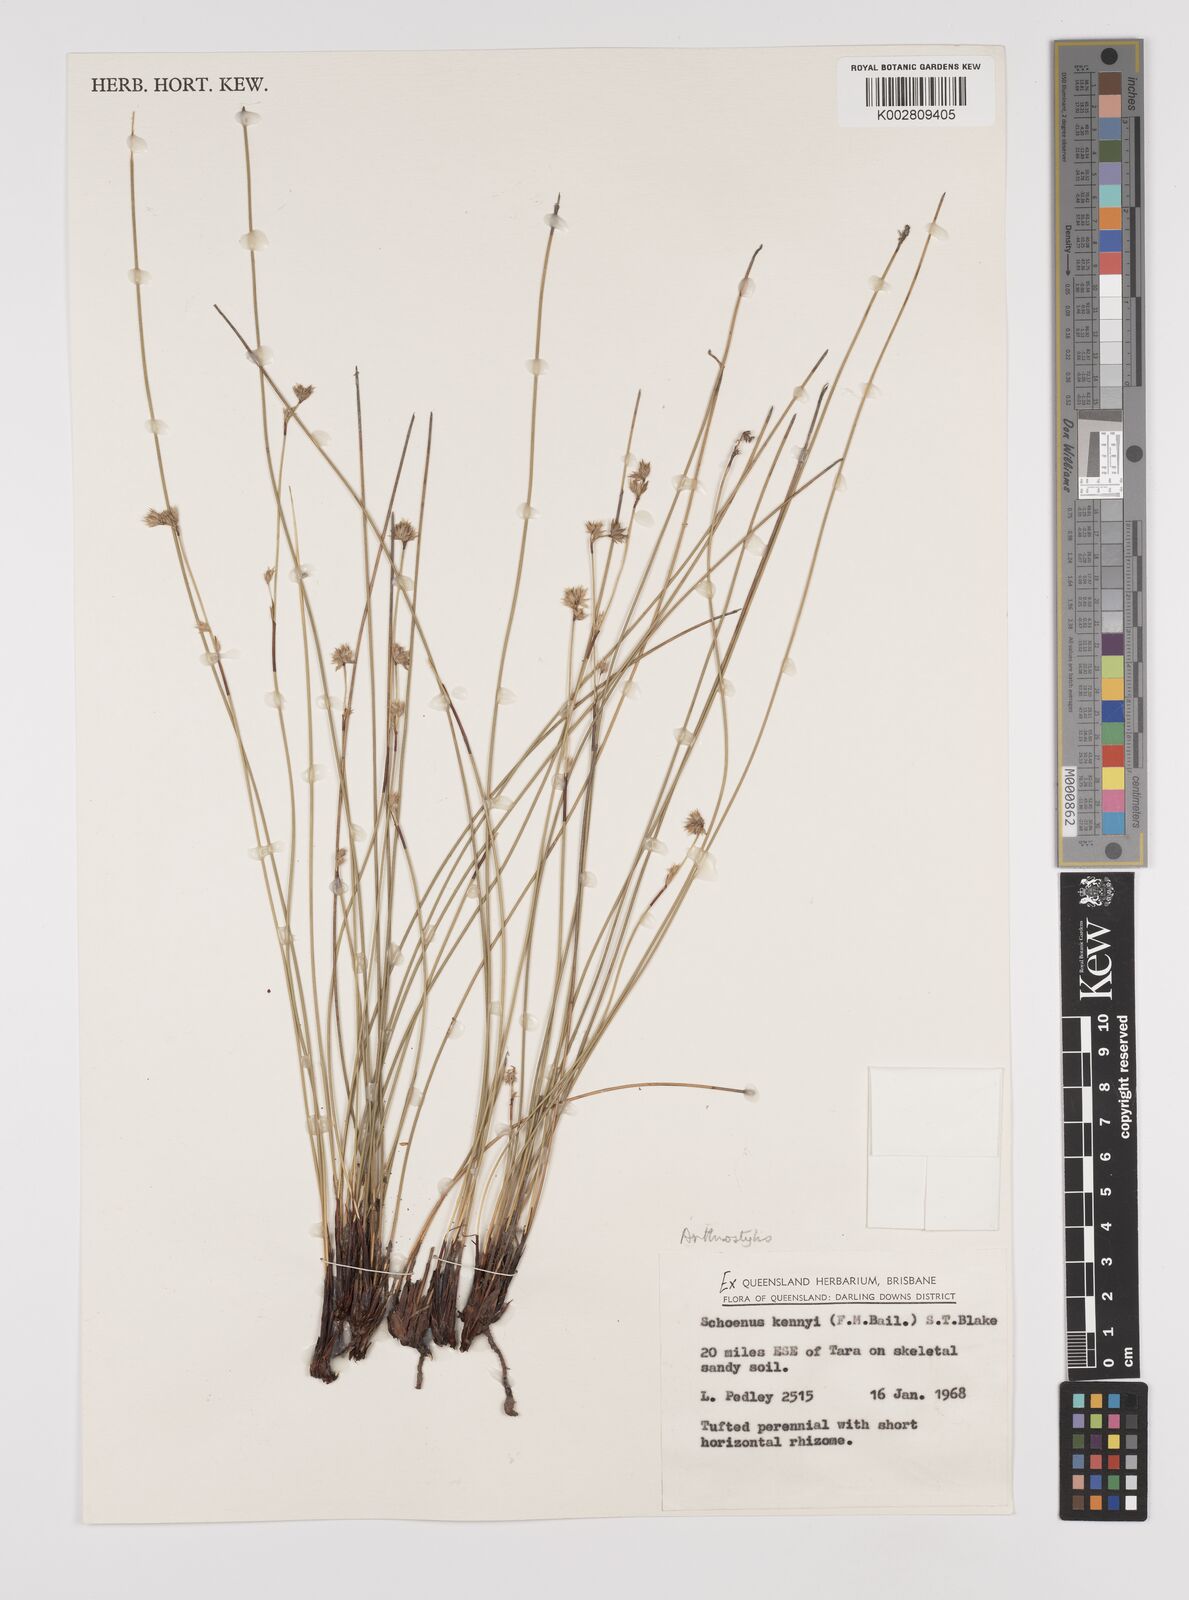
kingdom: Plantae
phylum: Tracheophyta
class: Liliopsida
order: Poales
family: Cyperaceae
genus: Schoenus
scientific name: Schoenus kennyi
